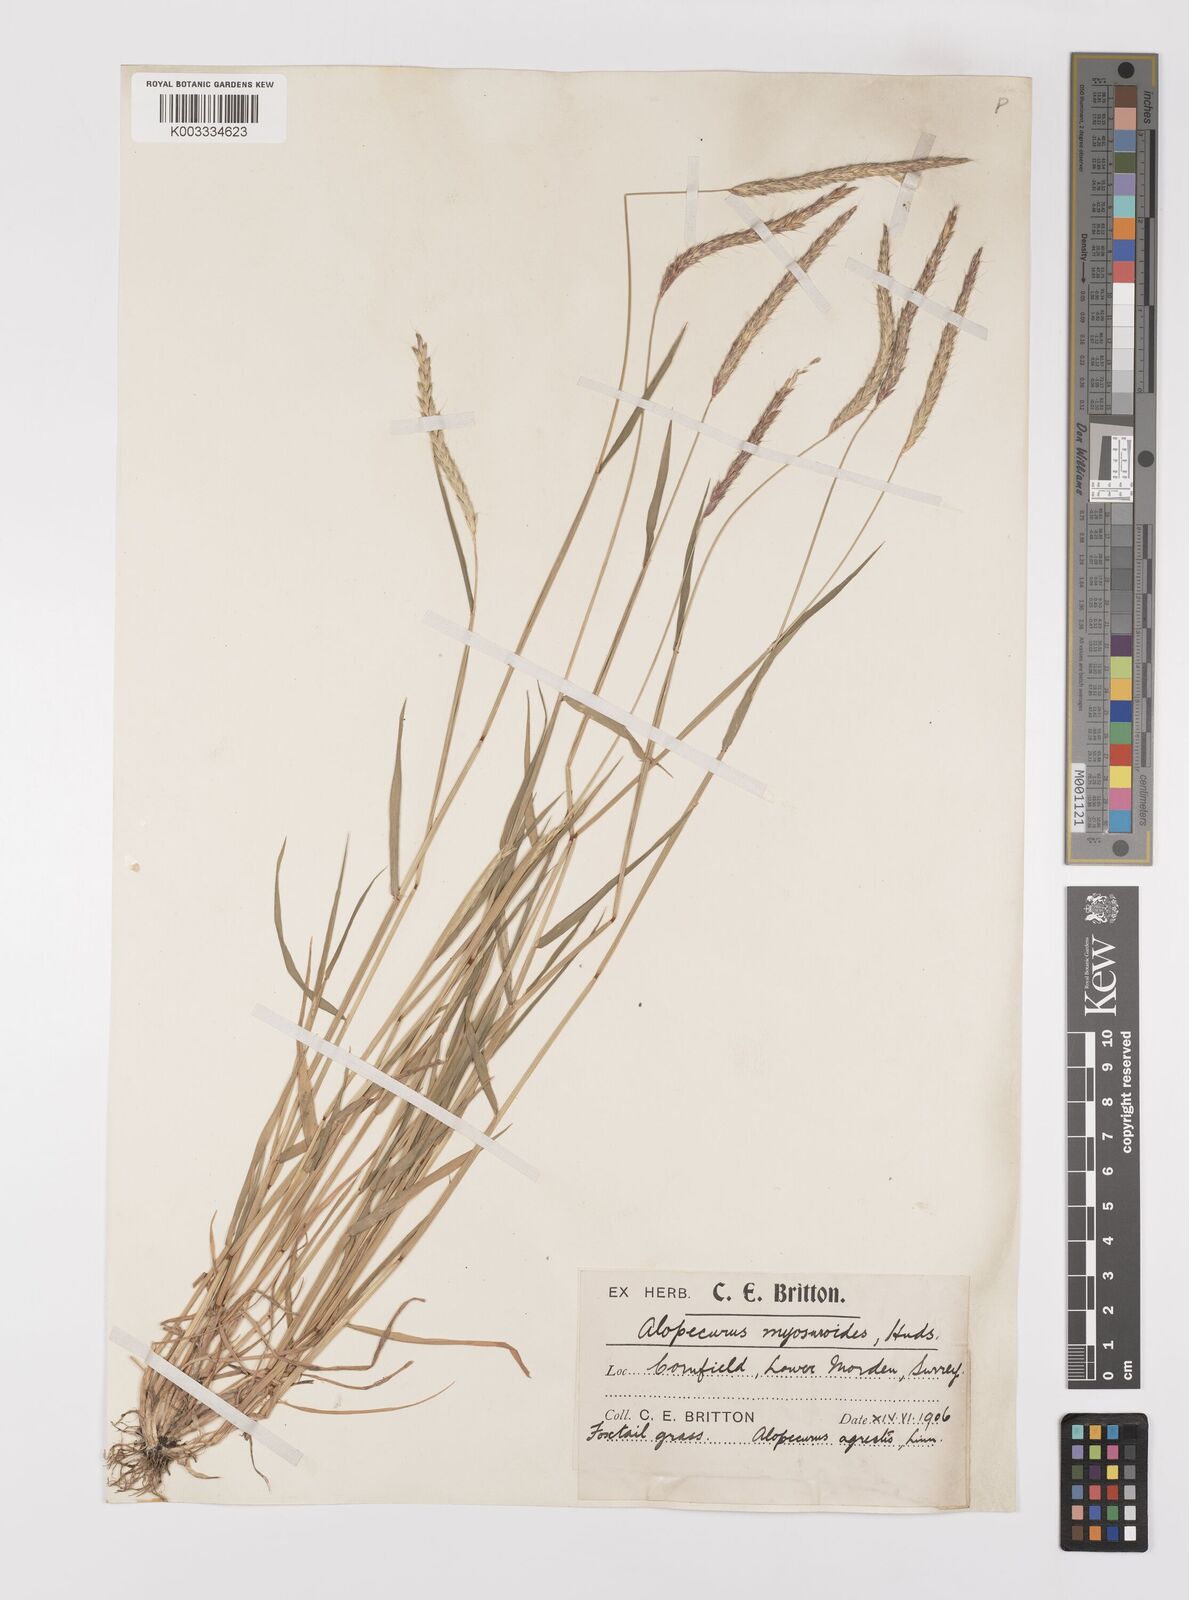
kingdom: Plantae
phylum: Tracheophyta
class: Liliopsida
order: Poales
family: Poaceae
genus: Alopecurus
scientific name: Alopecurus myosuroides
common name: Black-grass
